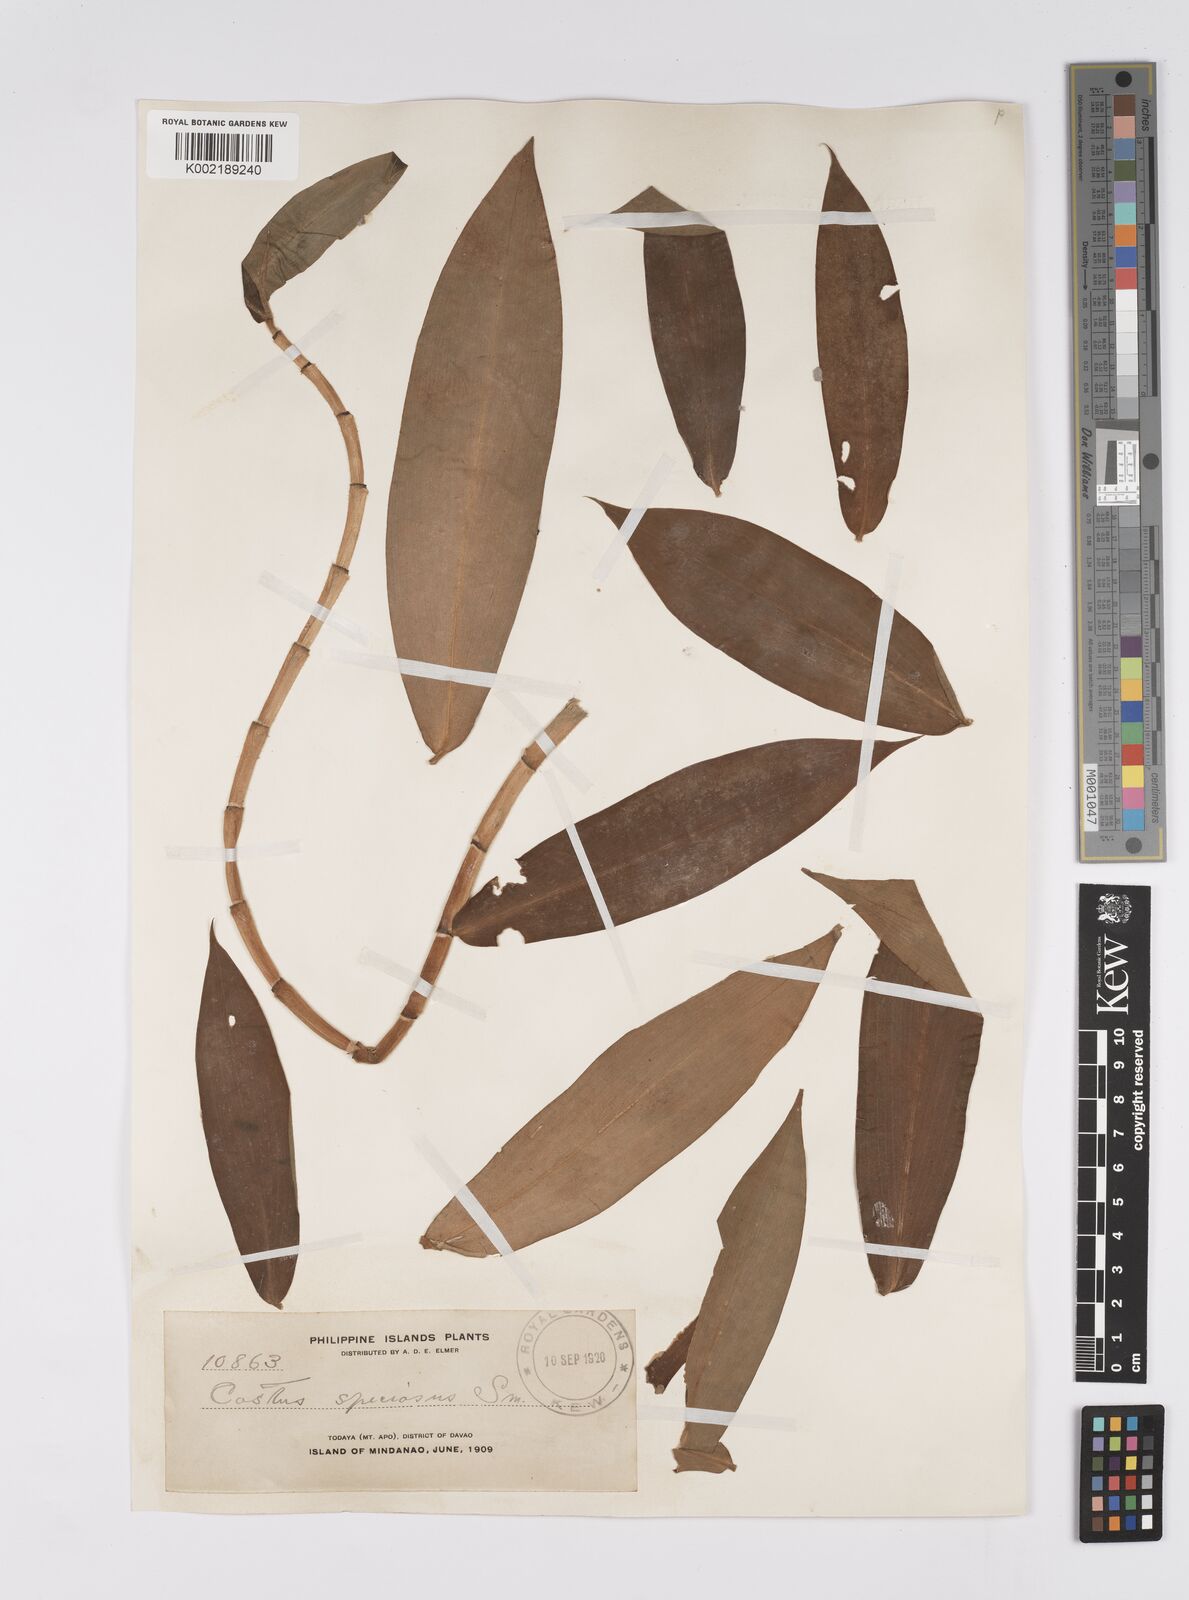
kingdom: Plantae
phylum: Tracheophyta
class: Liliopsida
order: Zingiberales
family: Costaceae
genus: Hellenia
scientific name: Hellenia speciosa
